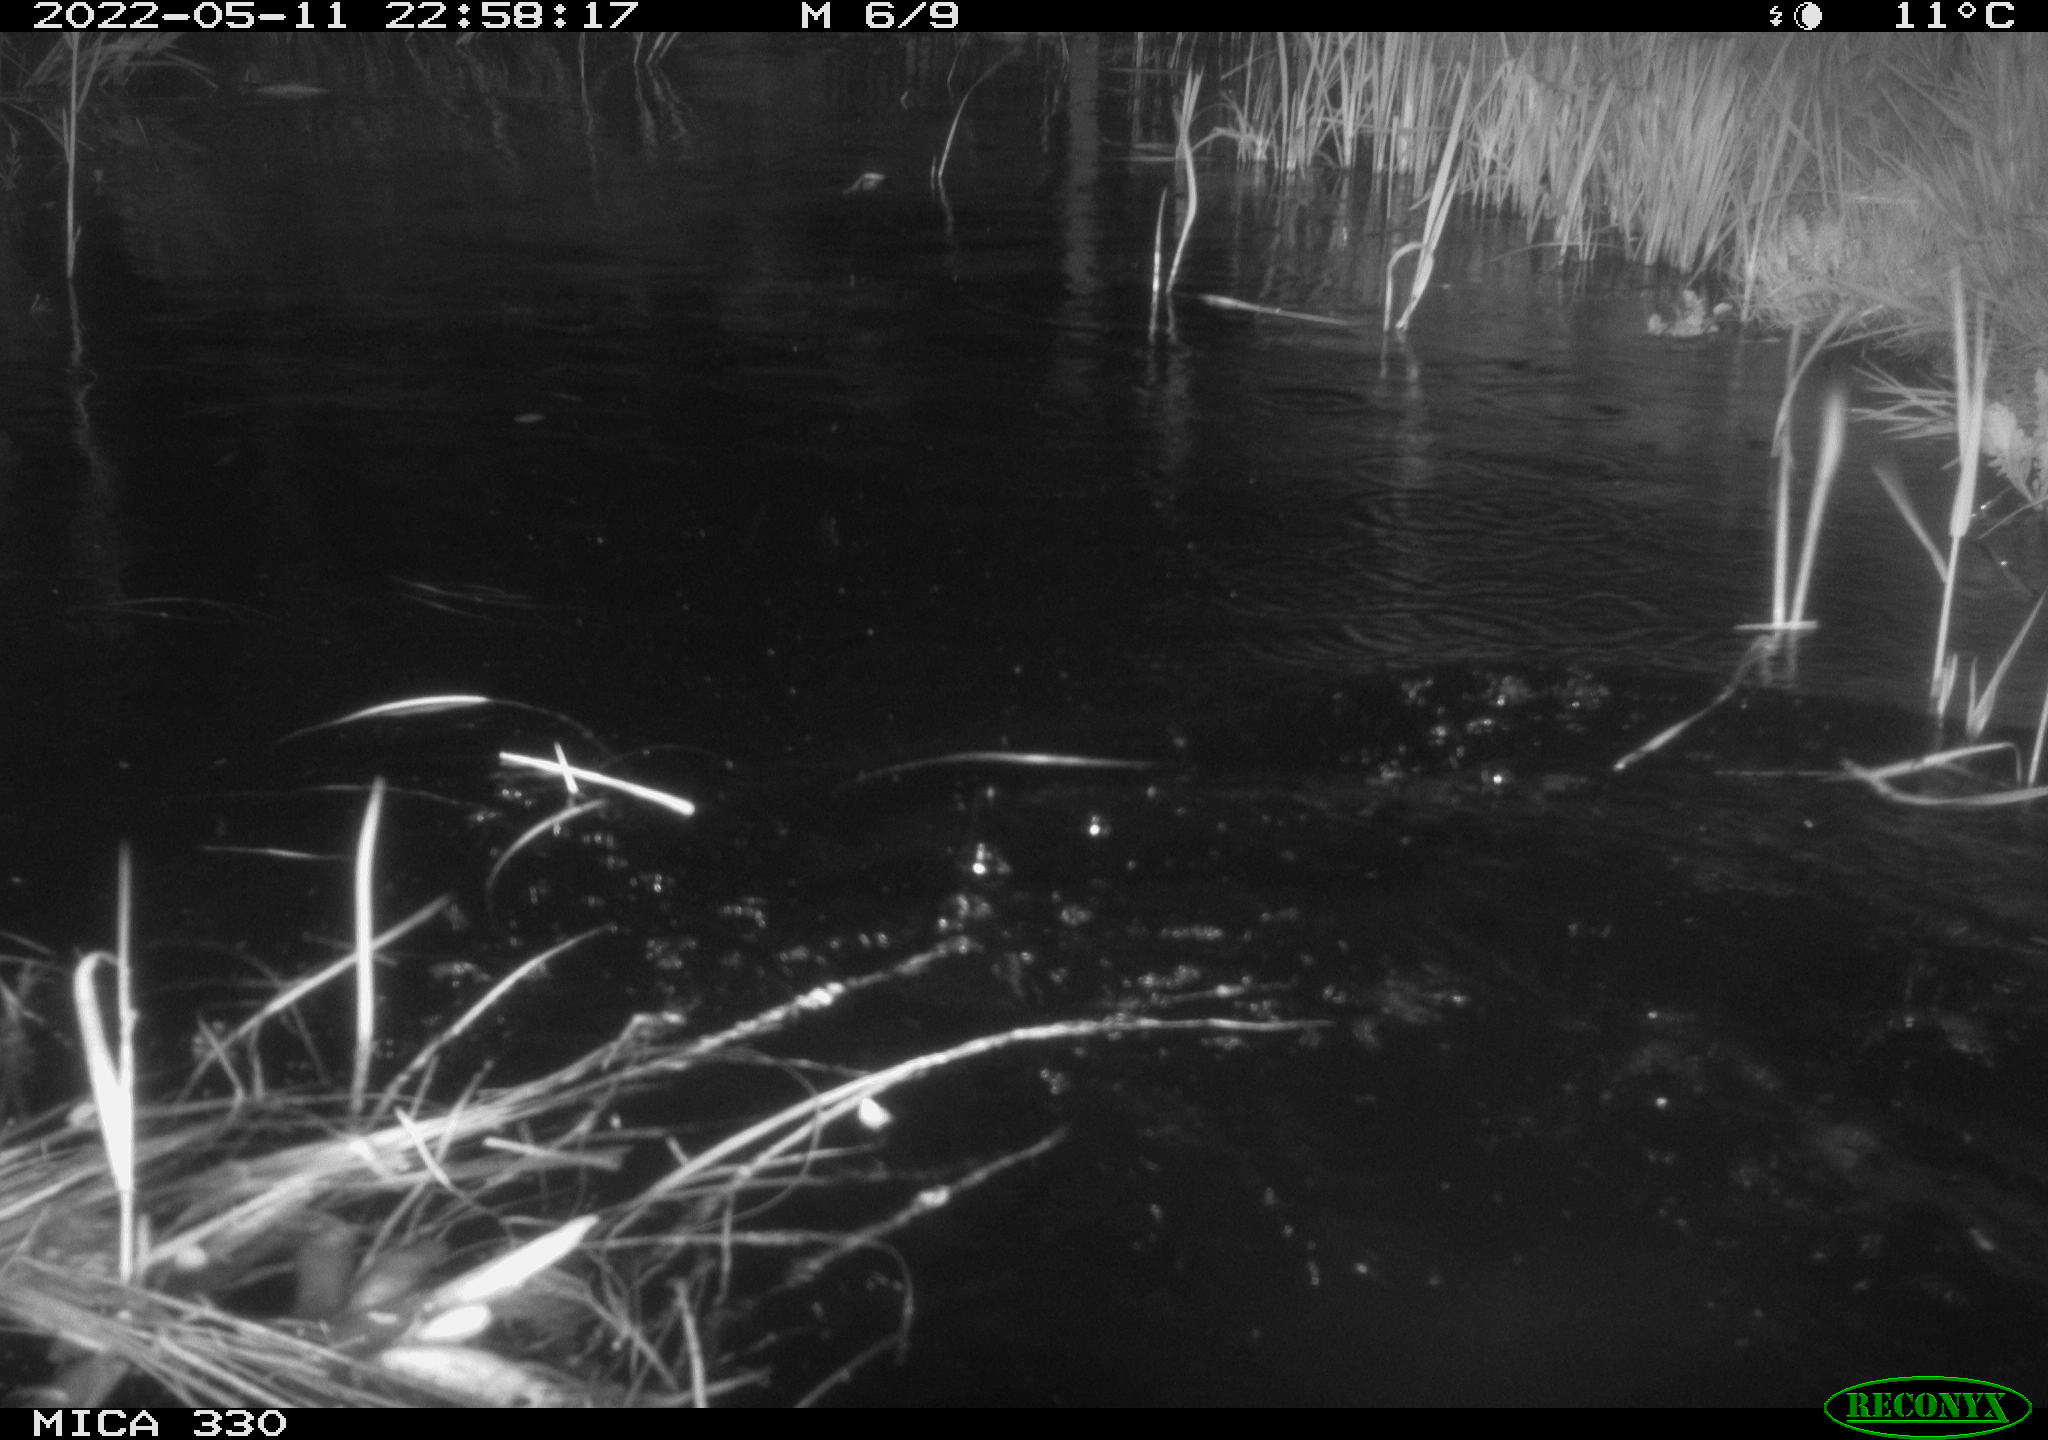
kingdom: Animalia
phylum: Chordata
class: Aves
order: Anseriformes
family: Anatidae
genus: Anas
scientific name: Anas platyrhynchos
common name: Mallard
